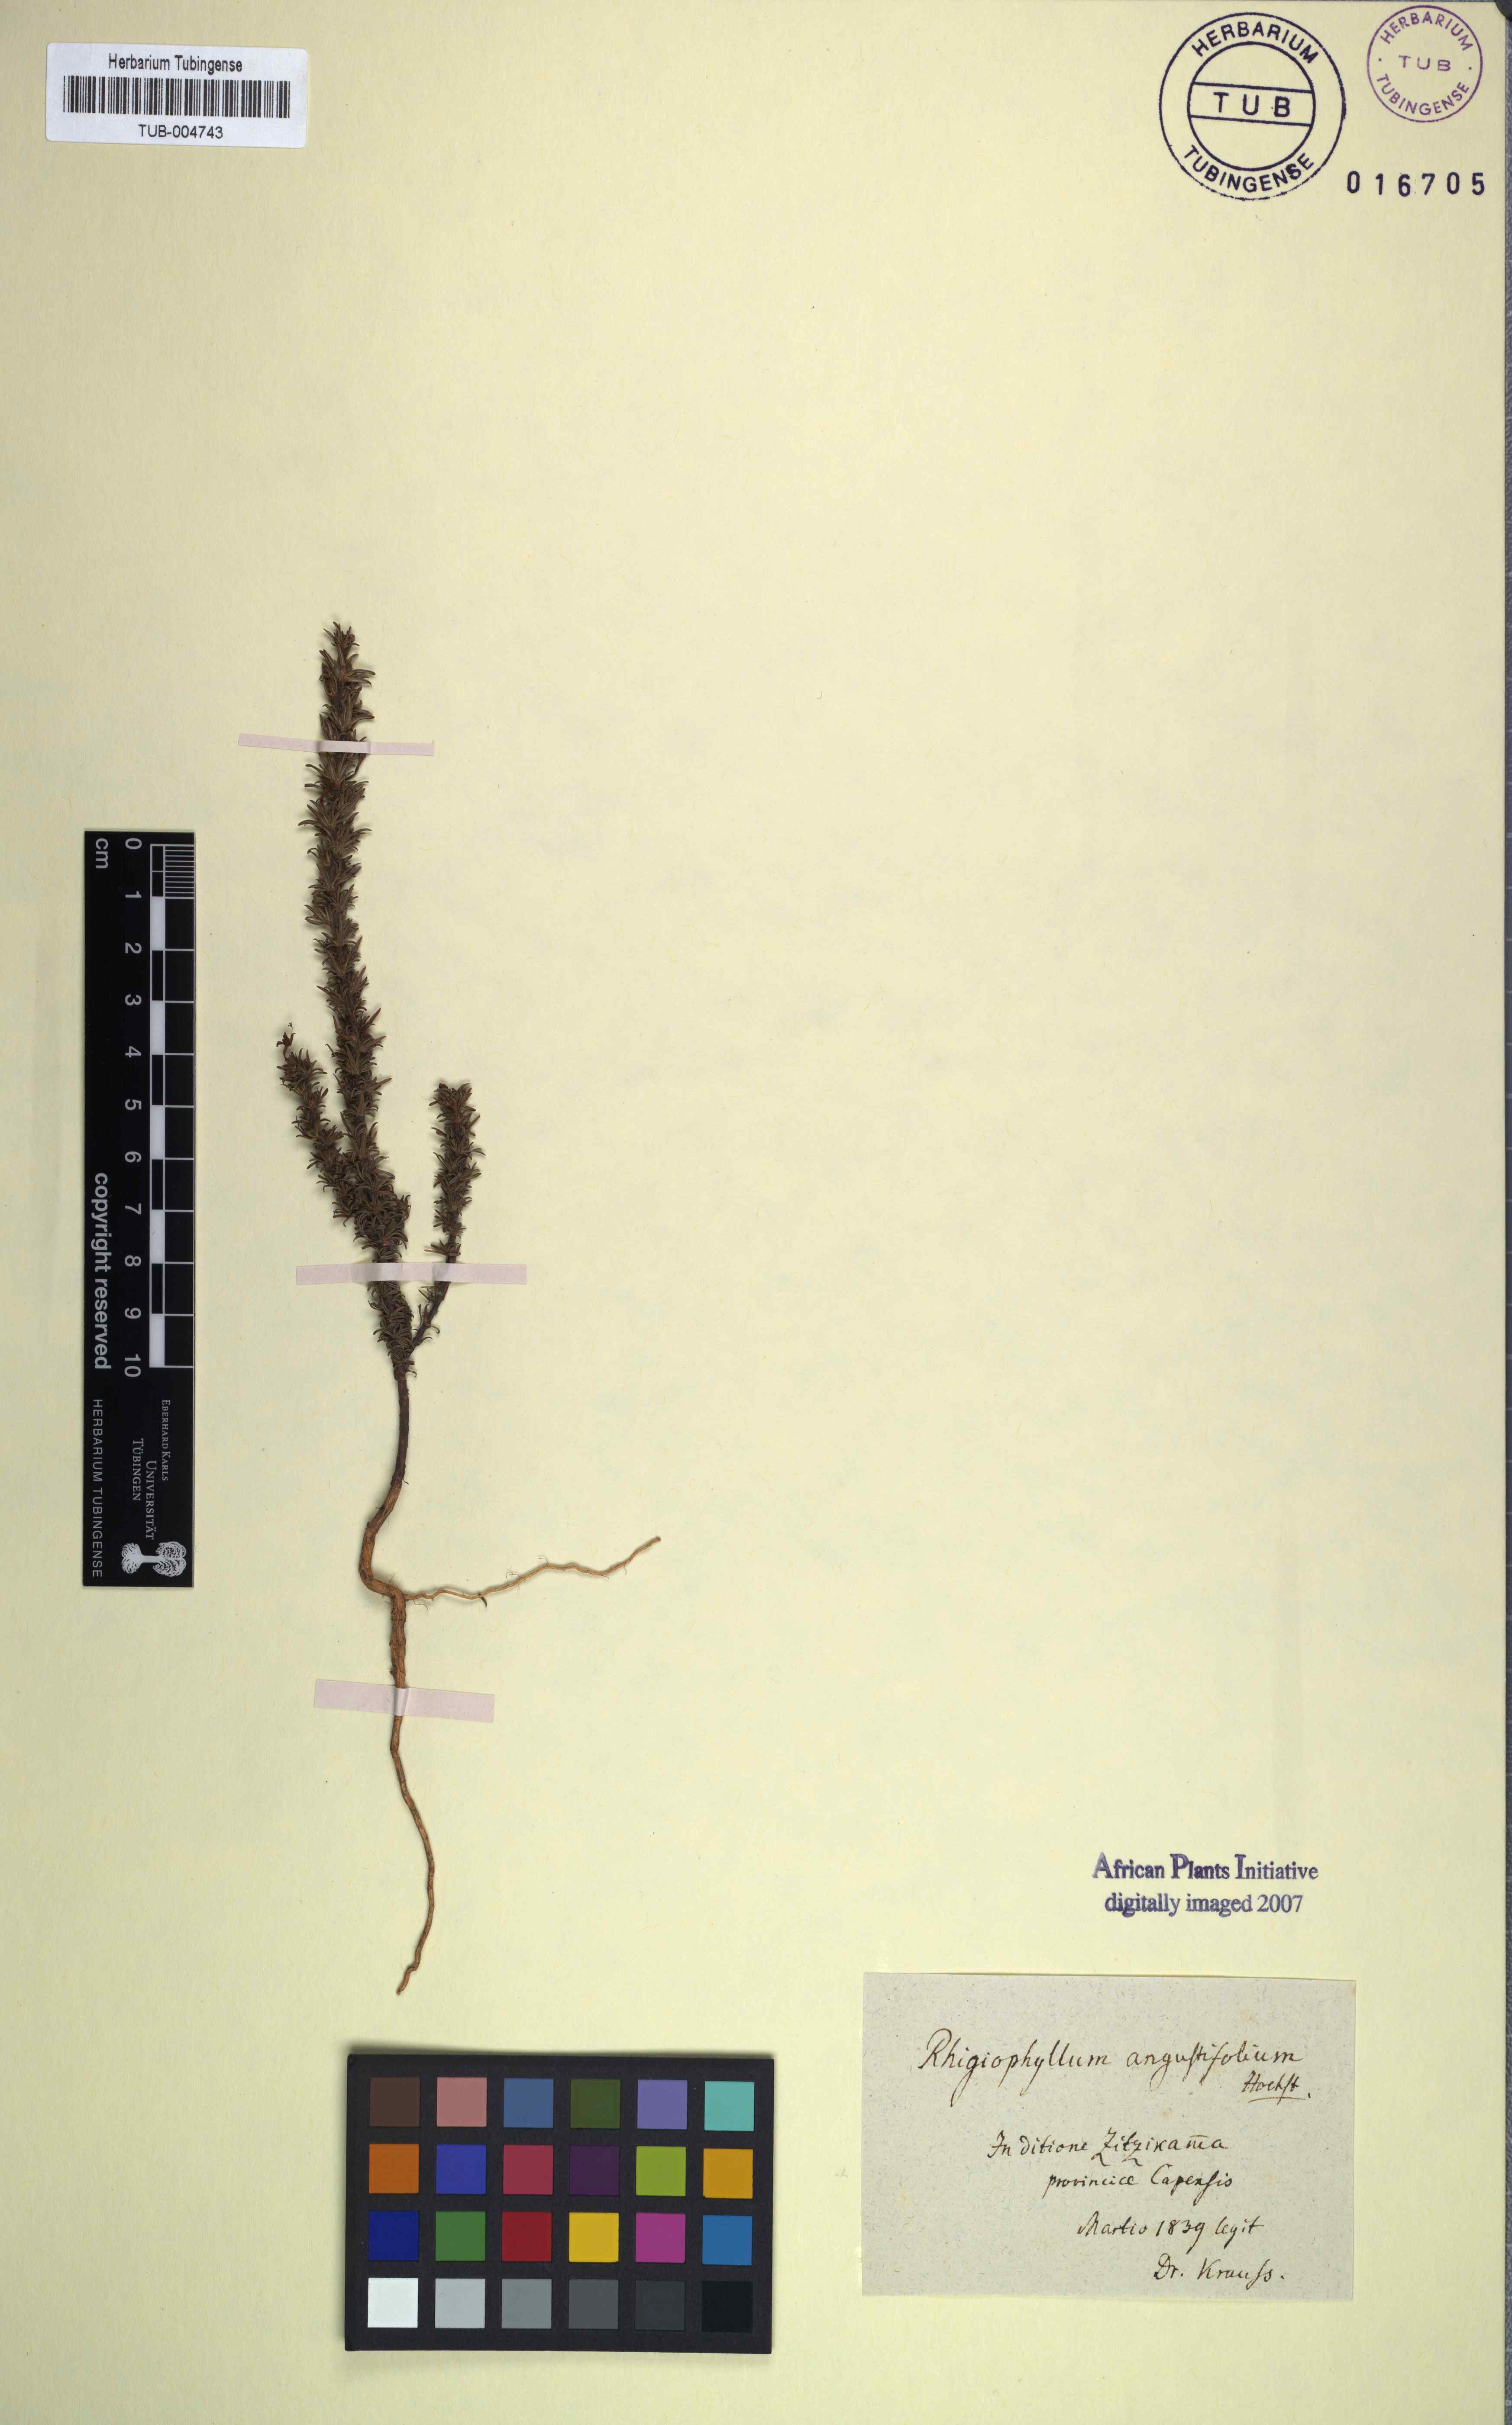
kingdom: Plantae
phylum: Tracheophyta
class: Magnoliopsida
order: Asterales
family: Campanulaceae
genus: Rhigiophyllum
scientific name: Rhigiophyllum
